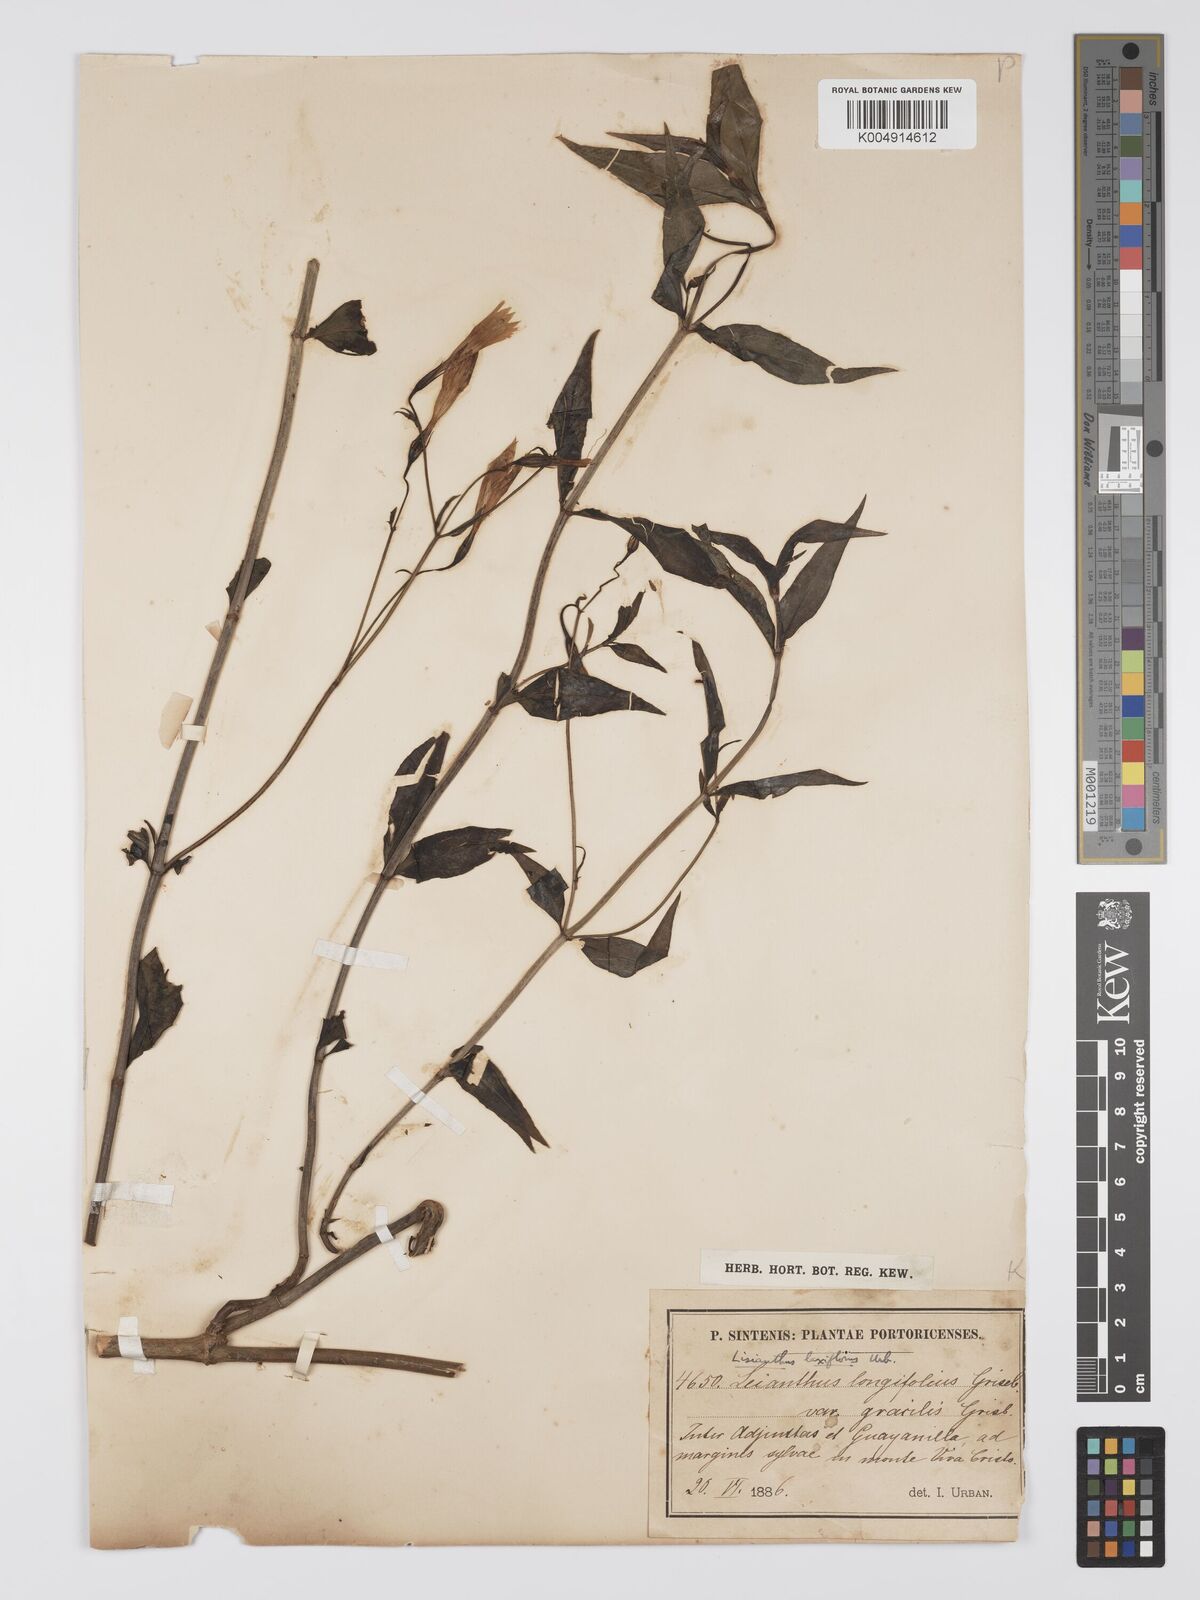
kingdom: Plantae
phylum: Tracheophyta
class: Magnoliopsida
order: Gentianales
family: Gentianaceae
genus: Lisianthius
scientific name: Lisianthius laxiflorus
